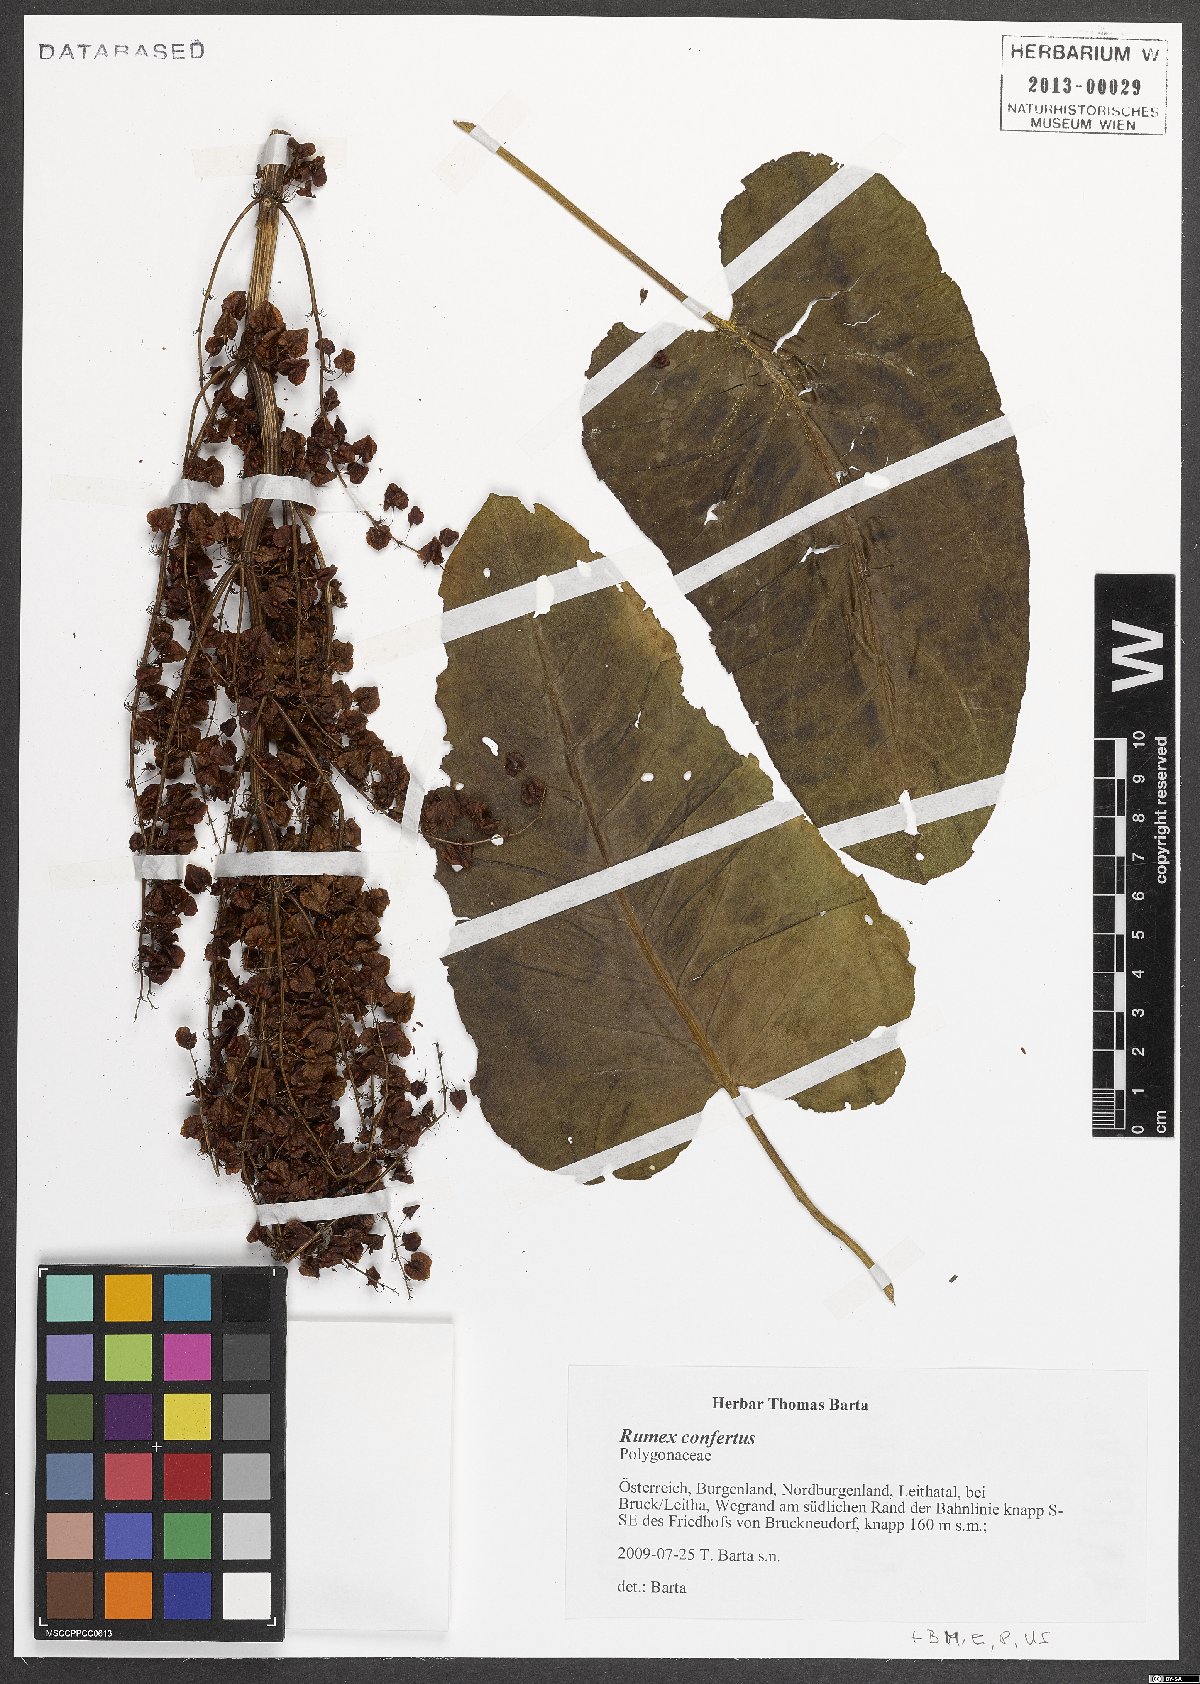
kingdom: Plantae
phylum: Tracheophyta
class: Magnoliopsida
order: Caryophyllales
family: Polygonaceae
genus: Rumex
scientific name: Rumex confertus
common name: Russian dock
